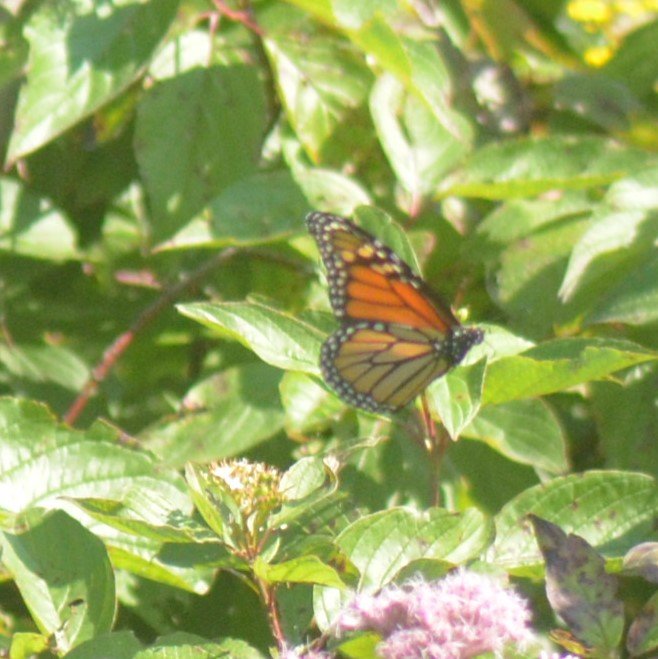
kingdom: Animalia
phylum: Arthropoda
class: Insecta
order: Lepidoptera
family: Nymphalidae
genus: Danaus
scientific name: Danaus plexippus
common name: Monarch
